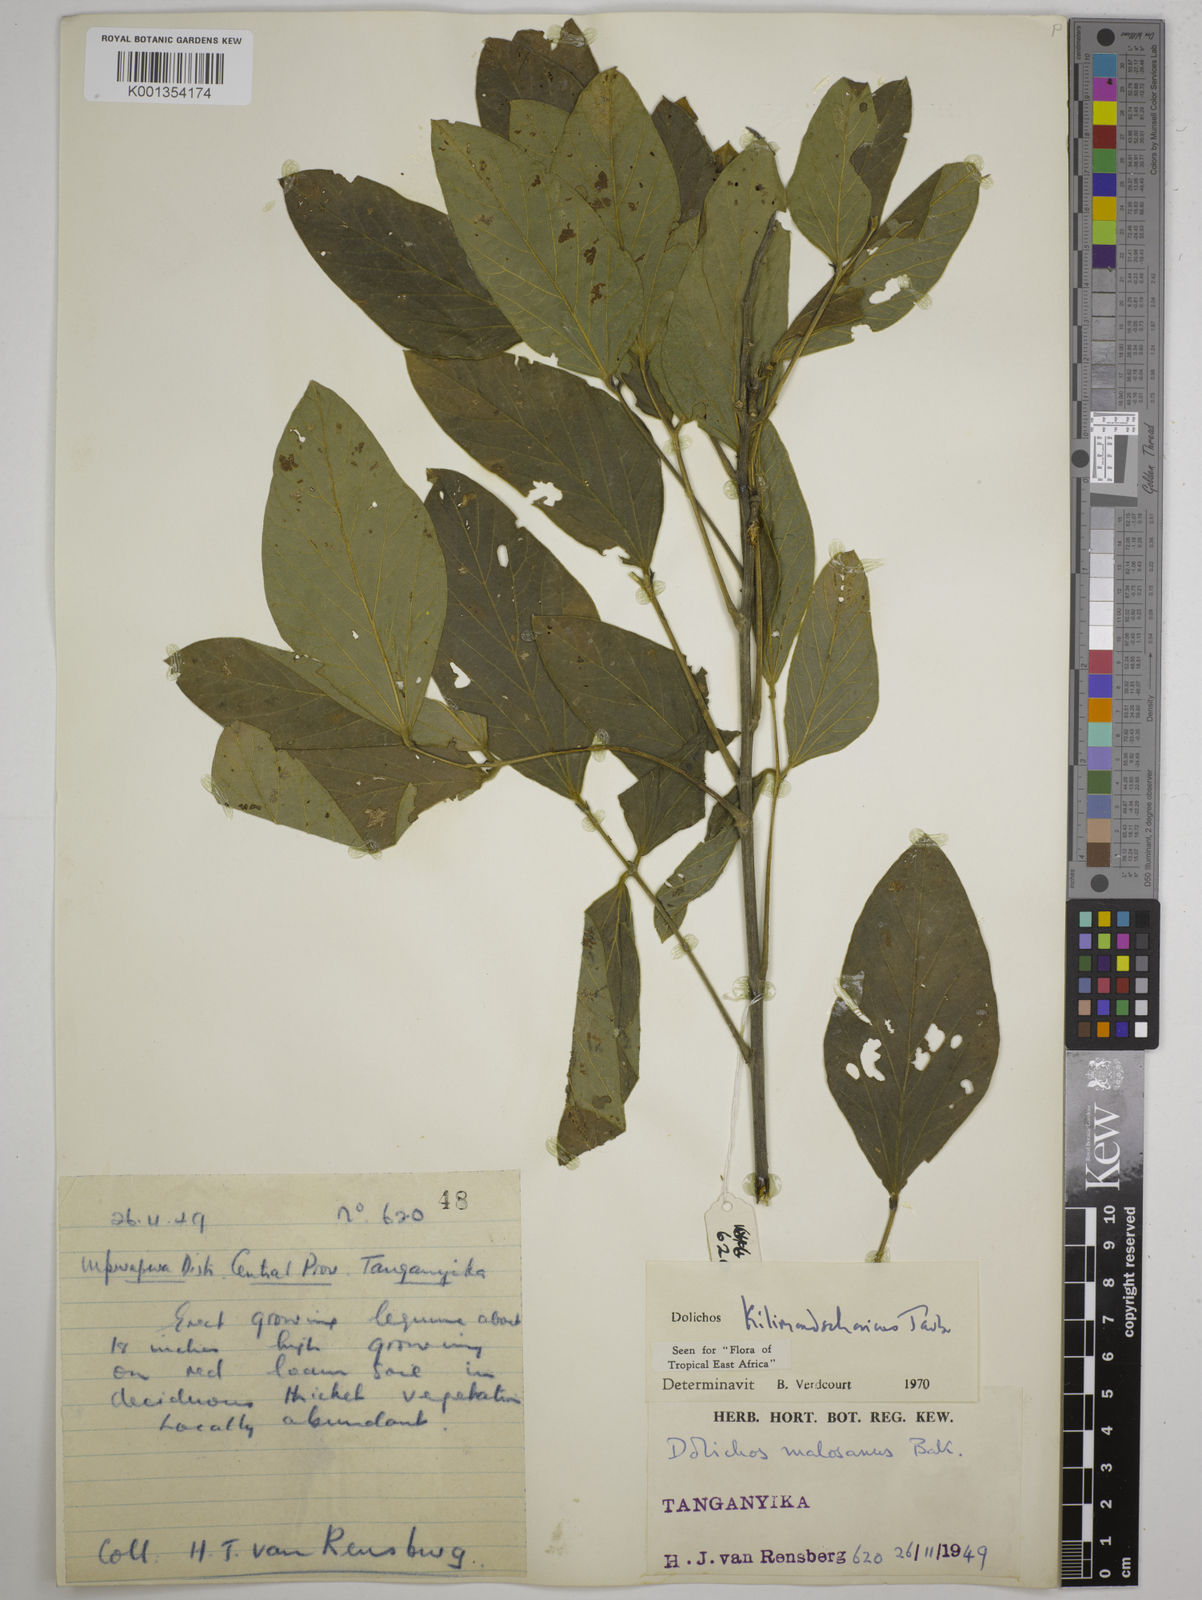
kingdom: Plantae
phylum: Tracheophyta
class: Magnoliopsida
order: Fabales
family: Fabaceae
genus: Dolichos
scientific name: Dolichos kilimandscharicus
